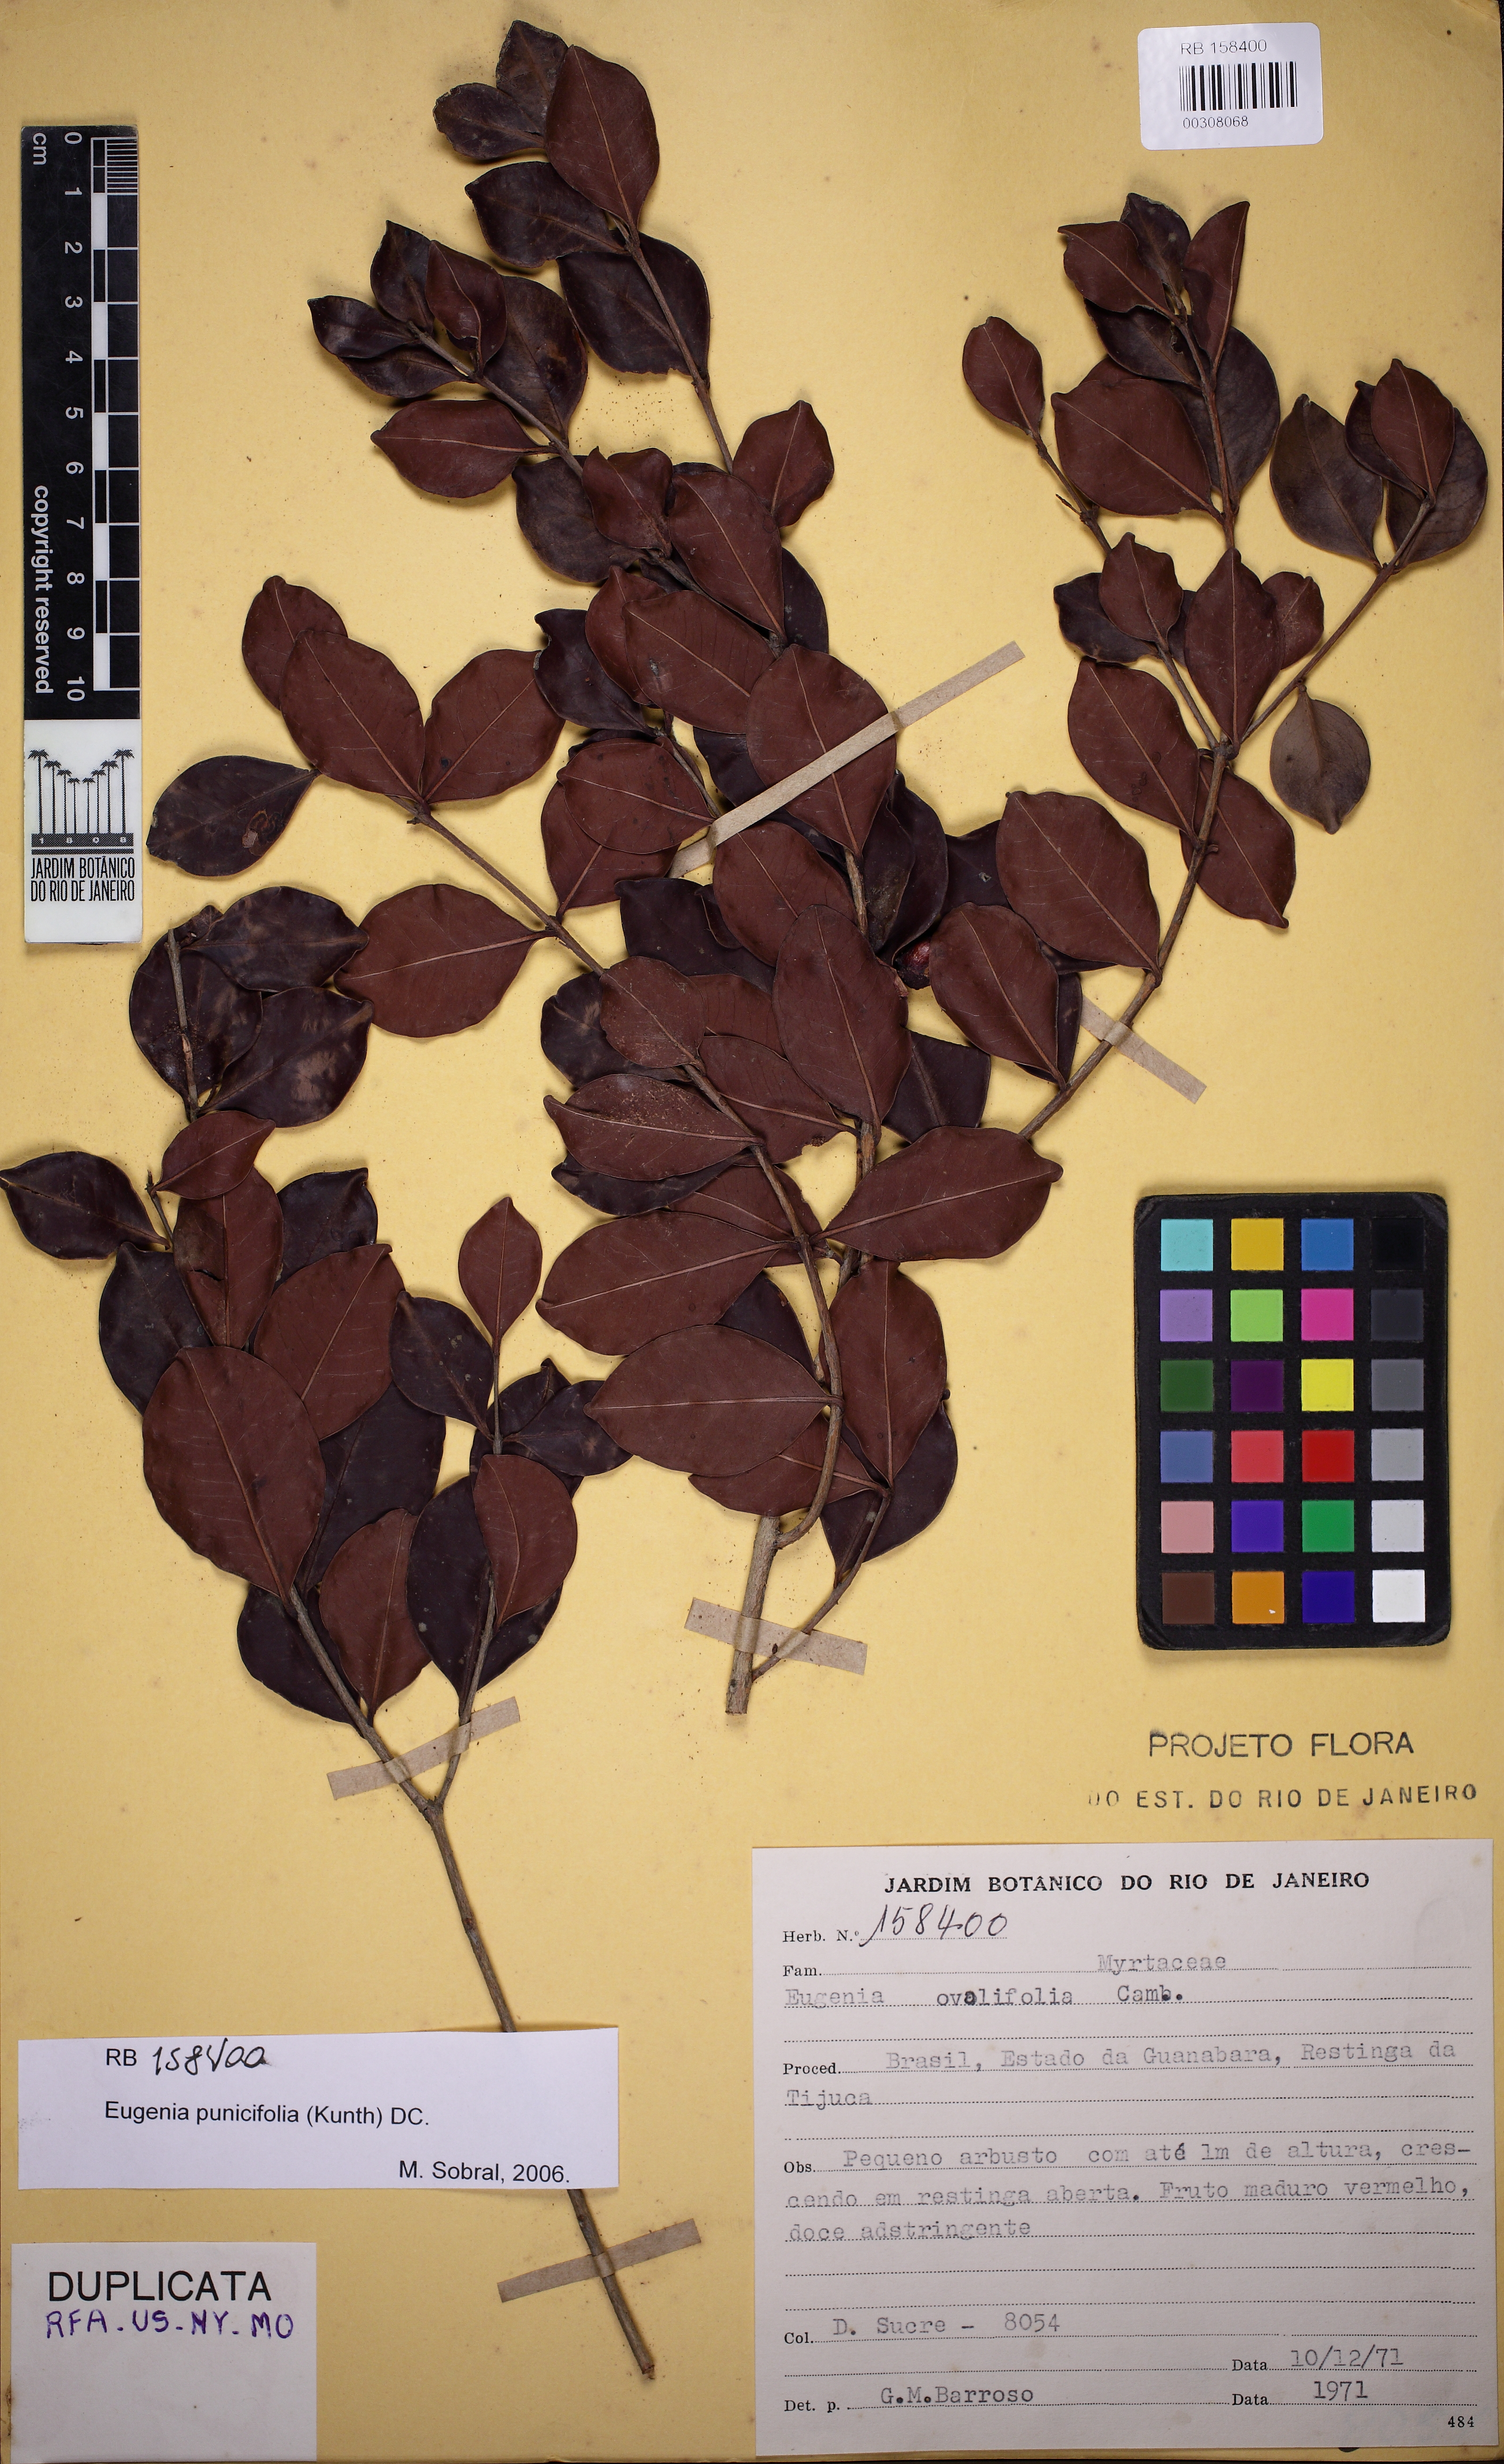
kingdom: Plantae
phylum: Tracheophyta
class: Magnoliopsida
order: Myrtales
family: Myrtaceae
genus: Eugenia
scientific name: Eugenia punicifolia
